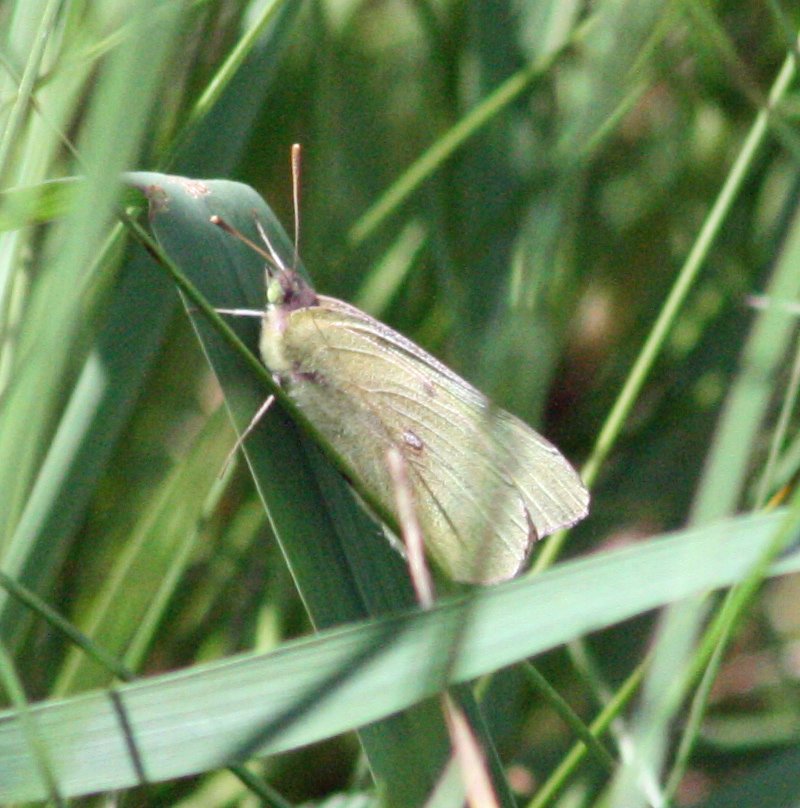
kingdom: Animalia
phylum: Arthropoda
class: Insecta
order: Lepidoptera
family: Pieridae
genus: Colias
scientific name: Colias philodice
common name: Clouded Sulphur
